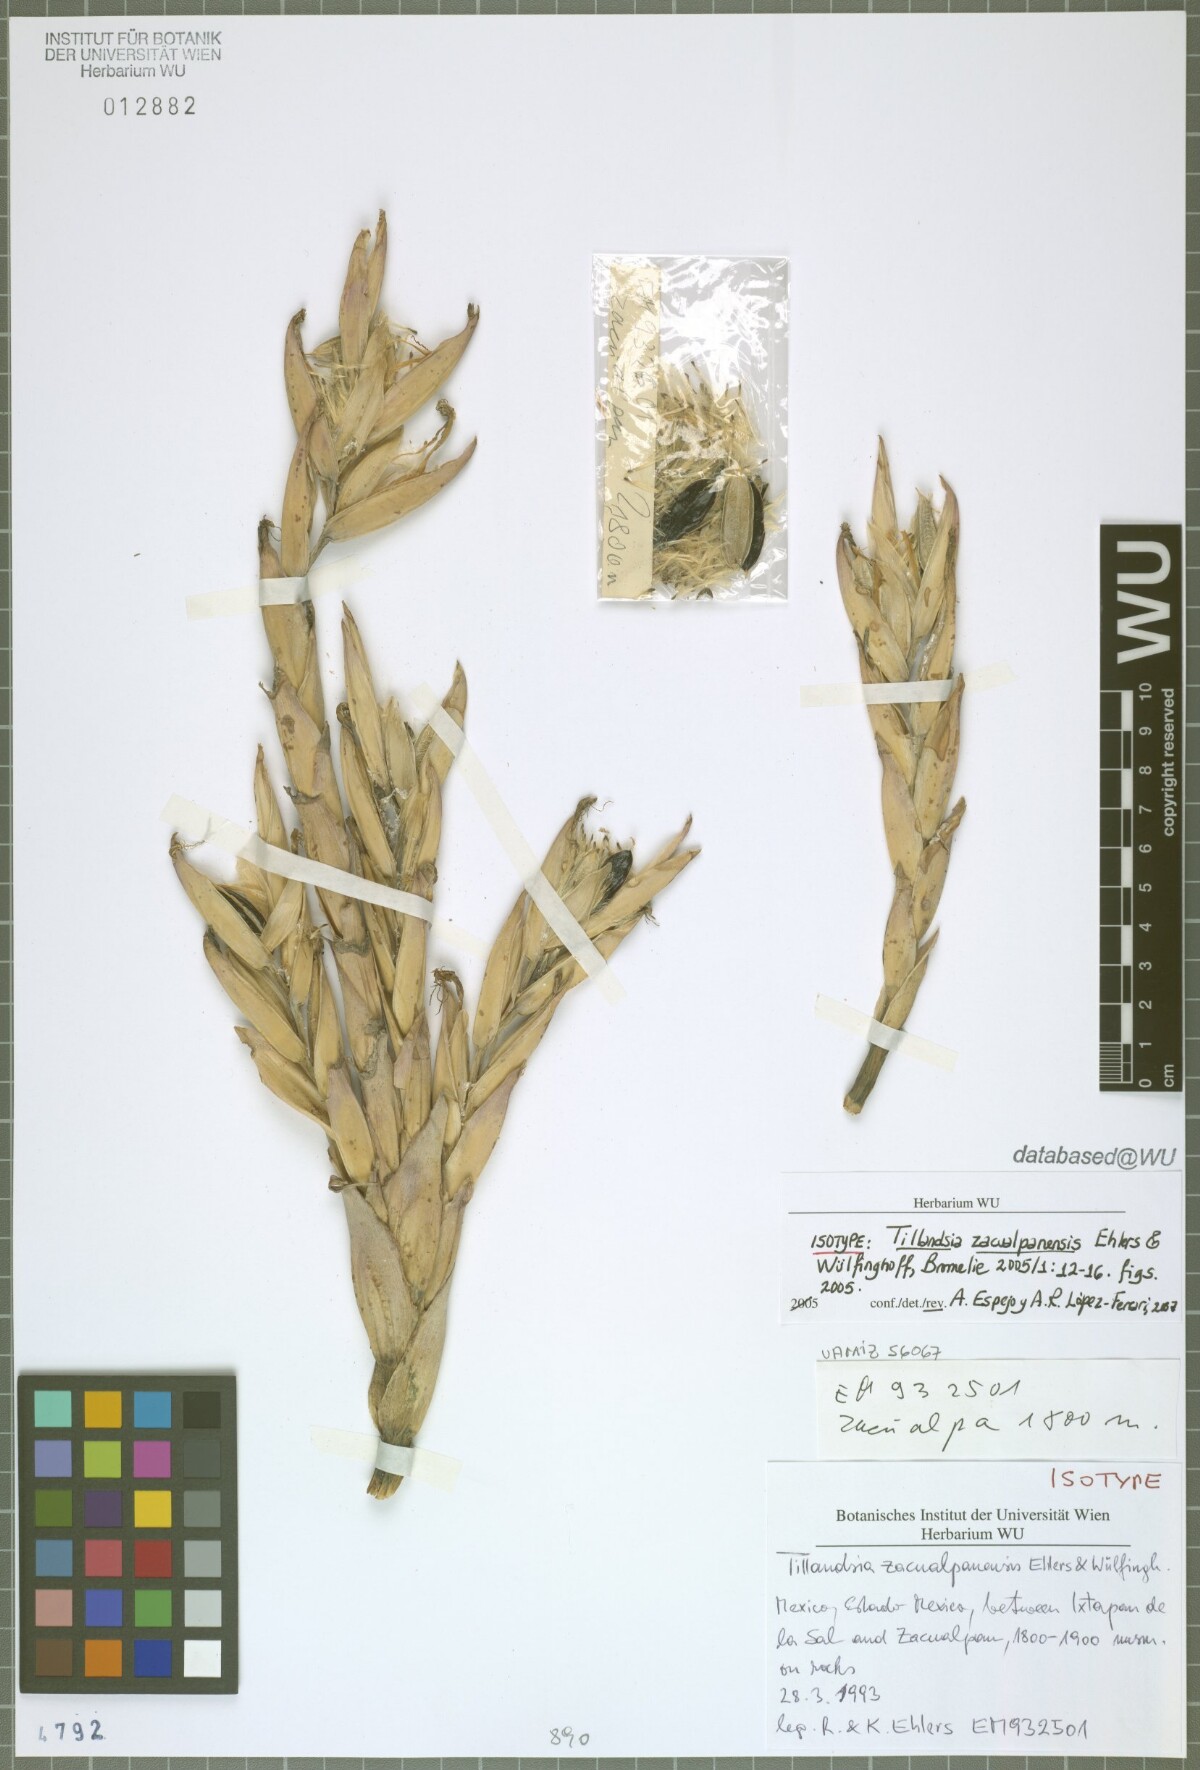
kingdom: Plantae
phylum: Tracheophyta
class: Liliopsida
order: Poales
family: Bromeliaceae
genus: Tillandsia
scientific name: Tillandsia zacualpanensis
